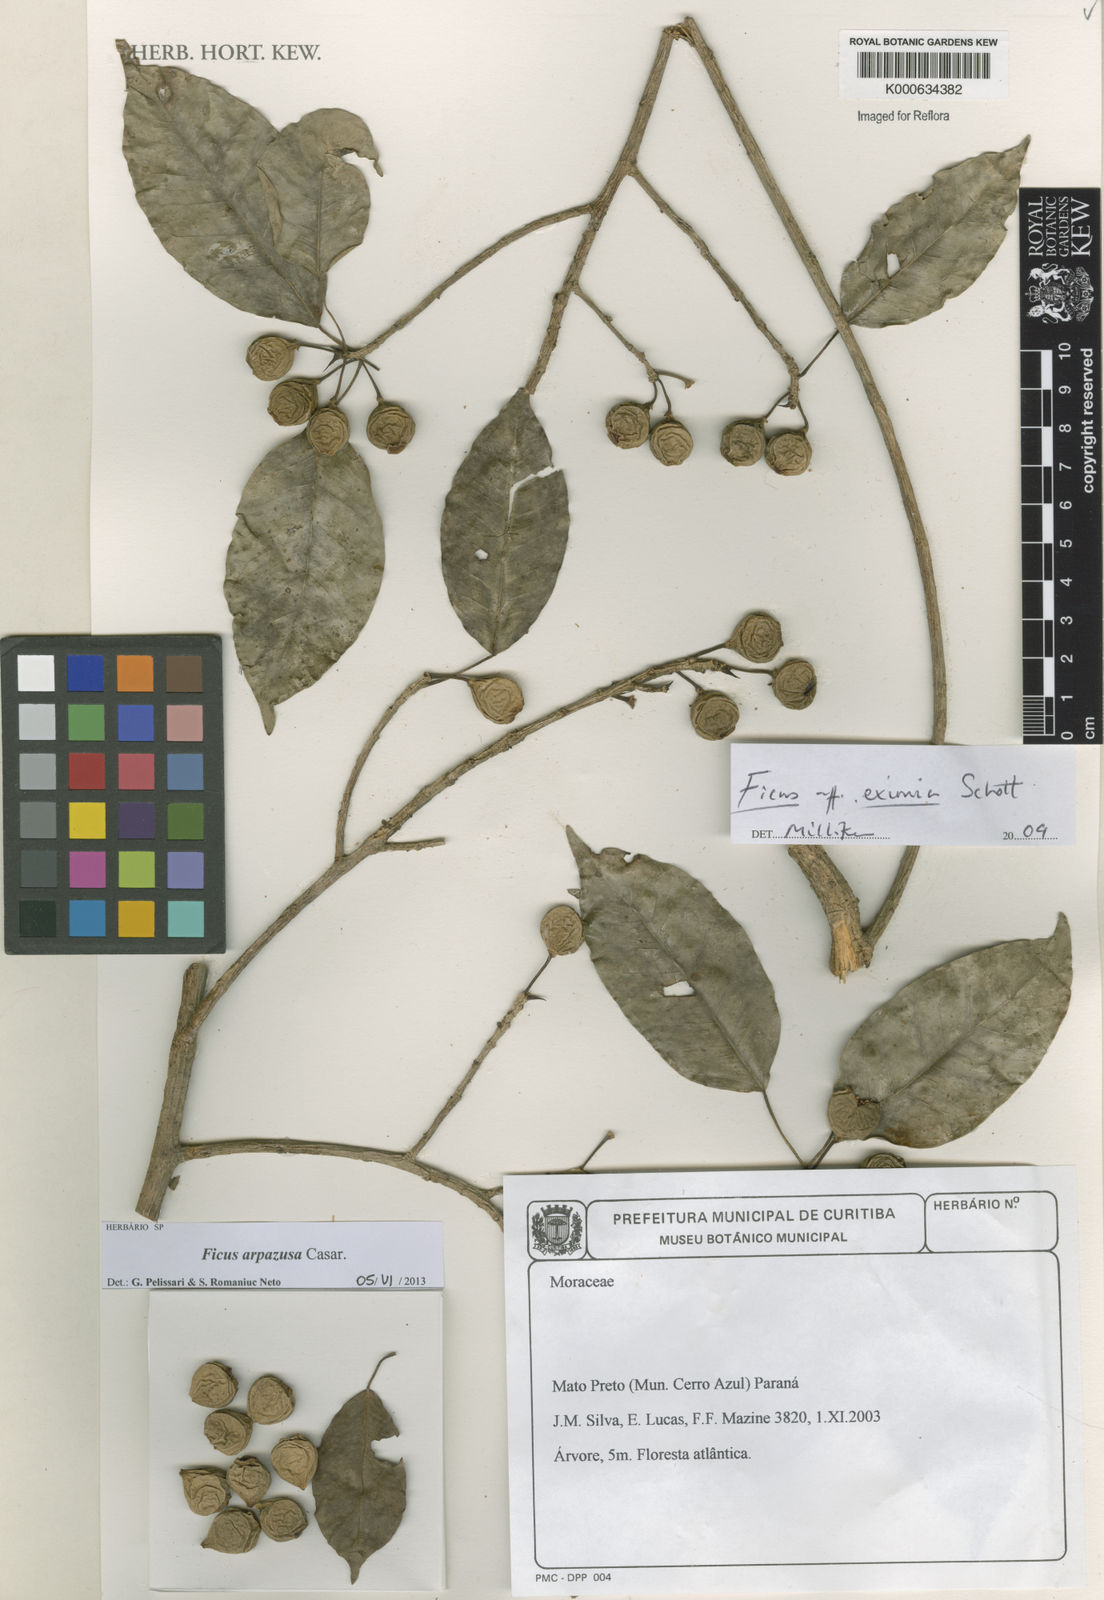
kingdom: Plantae
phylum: Tracheophyta
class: Magnoliopsida
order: Rosales
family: Moraceae
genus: Ficus
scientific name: Ficus
